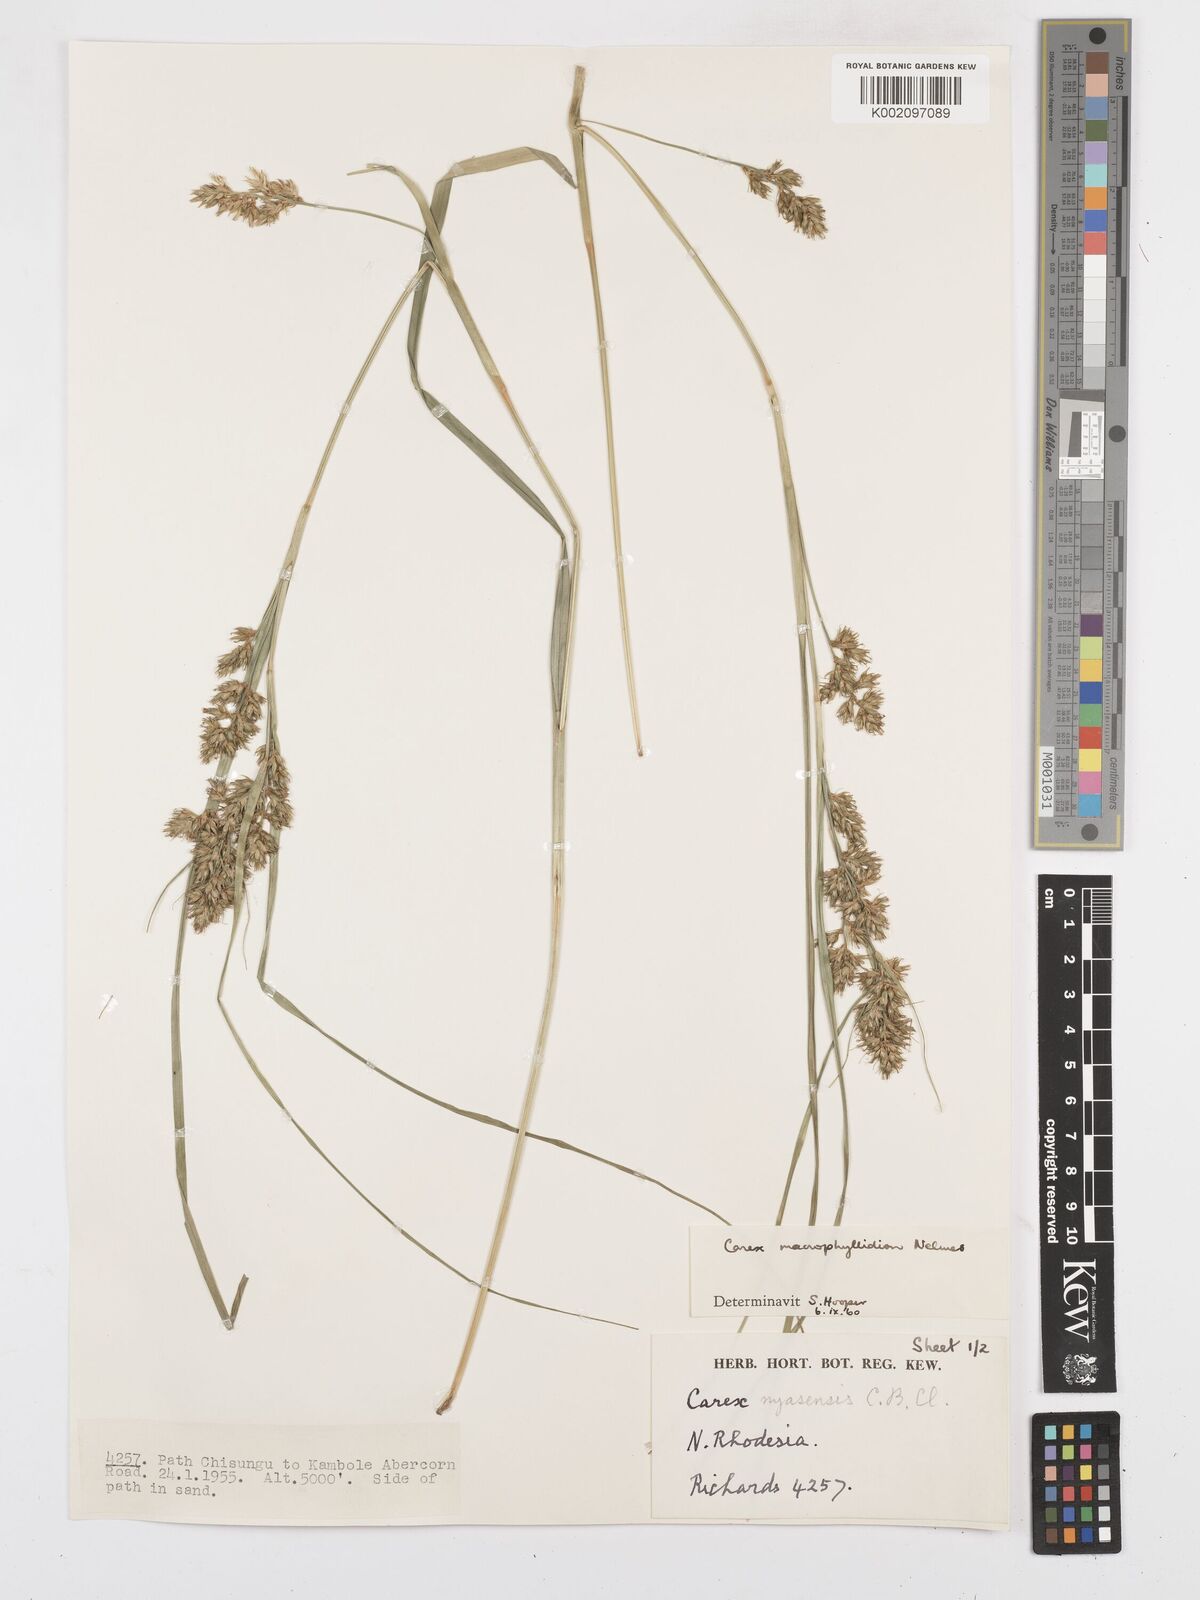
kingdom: Plantae
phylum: Tracheophyta
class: Liliopsida
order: Poales
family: Cyperaceae
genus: Carex
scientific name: Carex macrophyllidion
